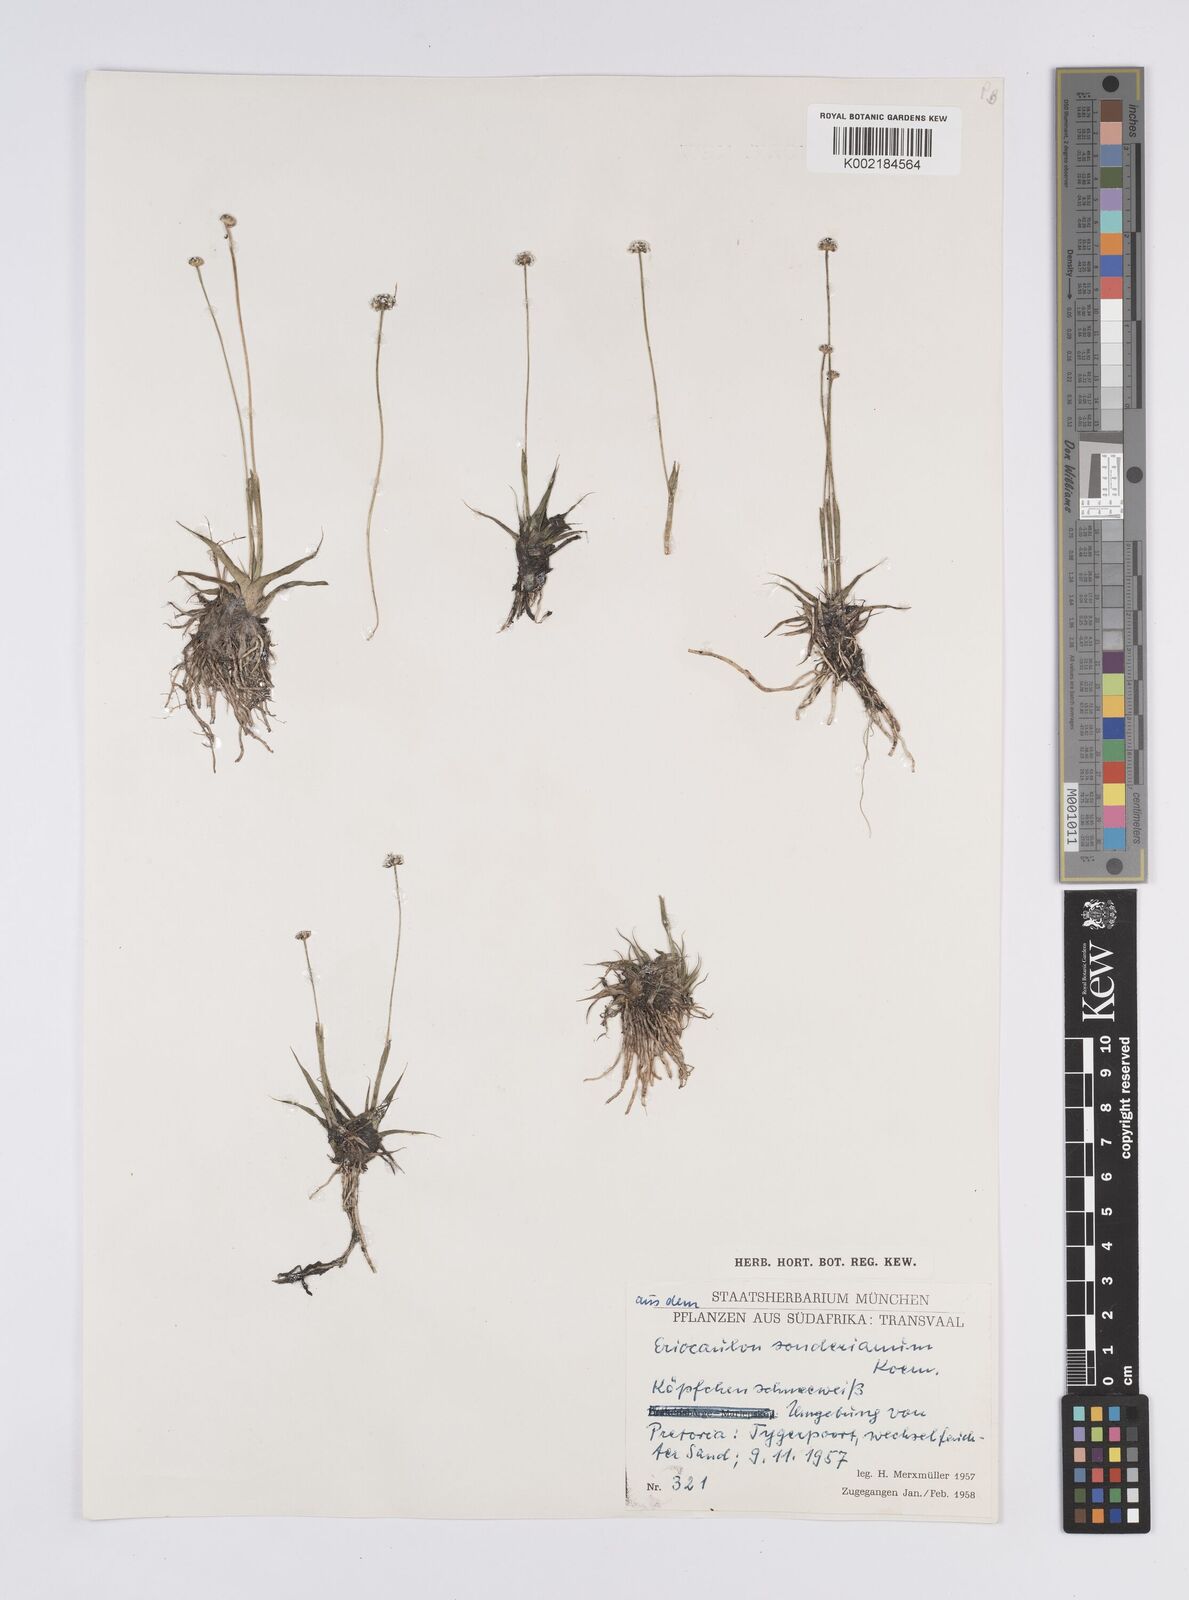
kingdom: Plantae
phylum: Tracheophyta
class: Liliopsida
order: Poales
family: Eriocaulaceae
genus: Eriocaulon
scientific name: Eriocaulon sonderianum
